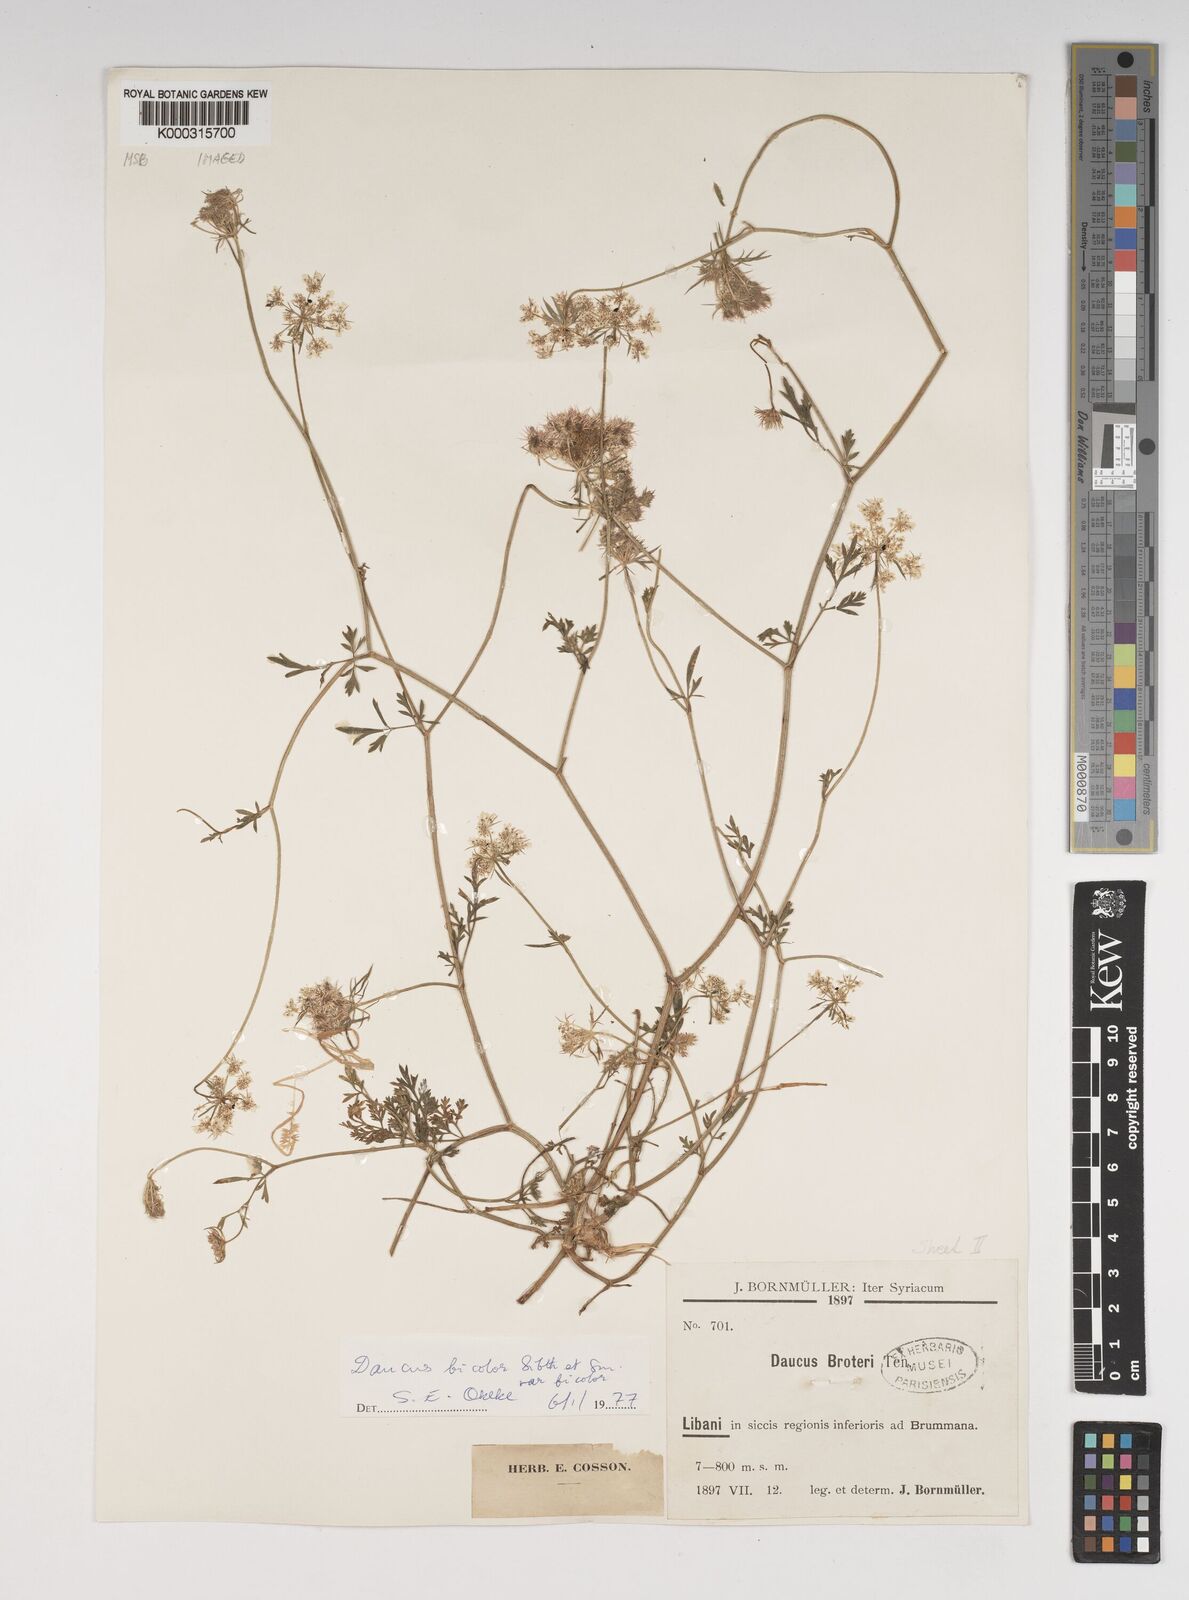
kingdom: Plantae
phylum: Tracheophyta
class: Magnoliopsida
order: Apiales
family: Apiaceae
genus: Daucus
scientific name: Daucus
